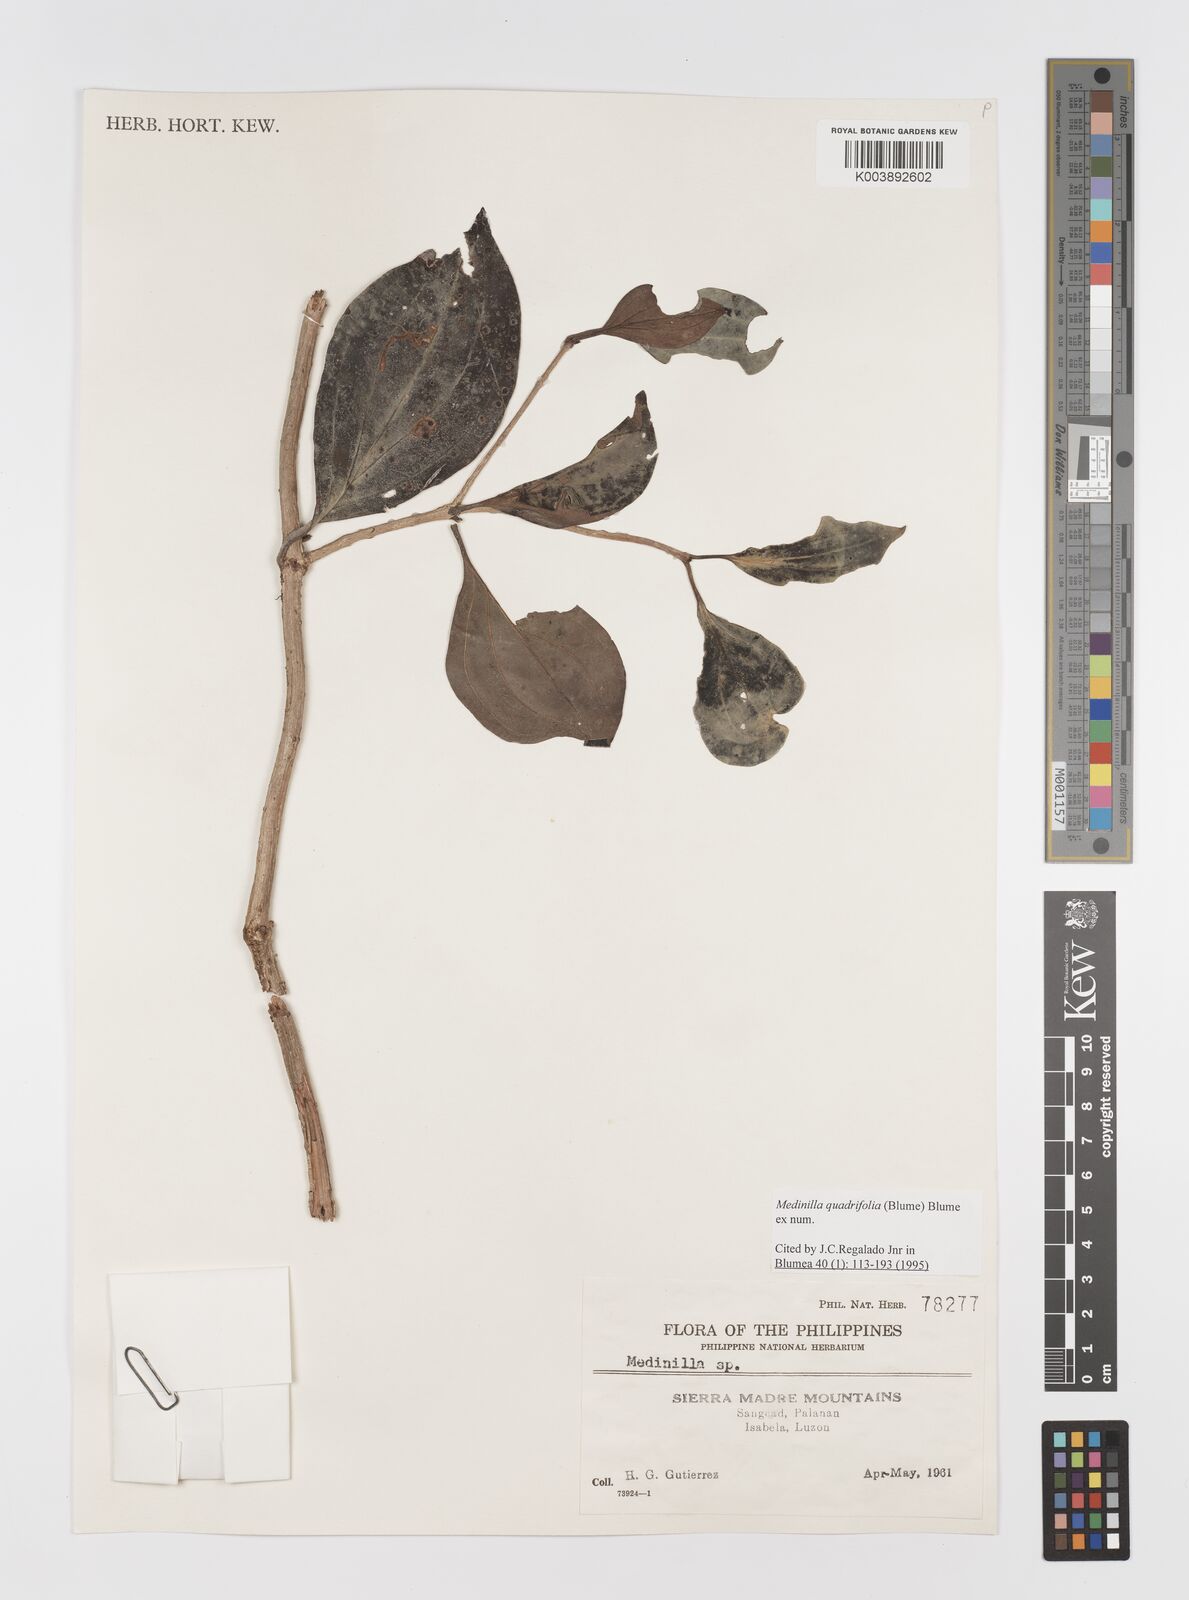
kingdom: Plantae
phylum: Tracheophyta
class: Magnoliopsida
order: Myrtales
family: Melastomataceae
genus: Medinilla
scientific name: Medinilla quadrifolia
